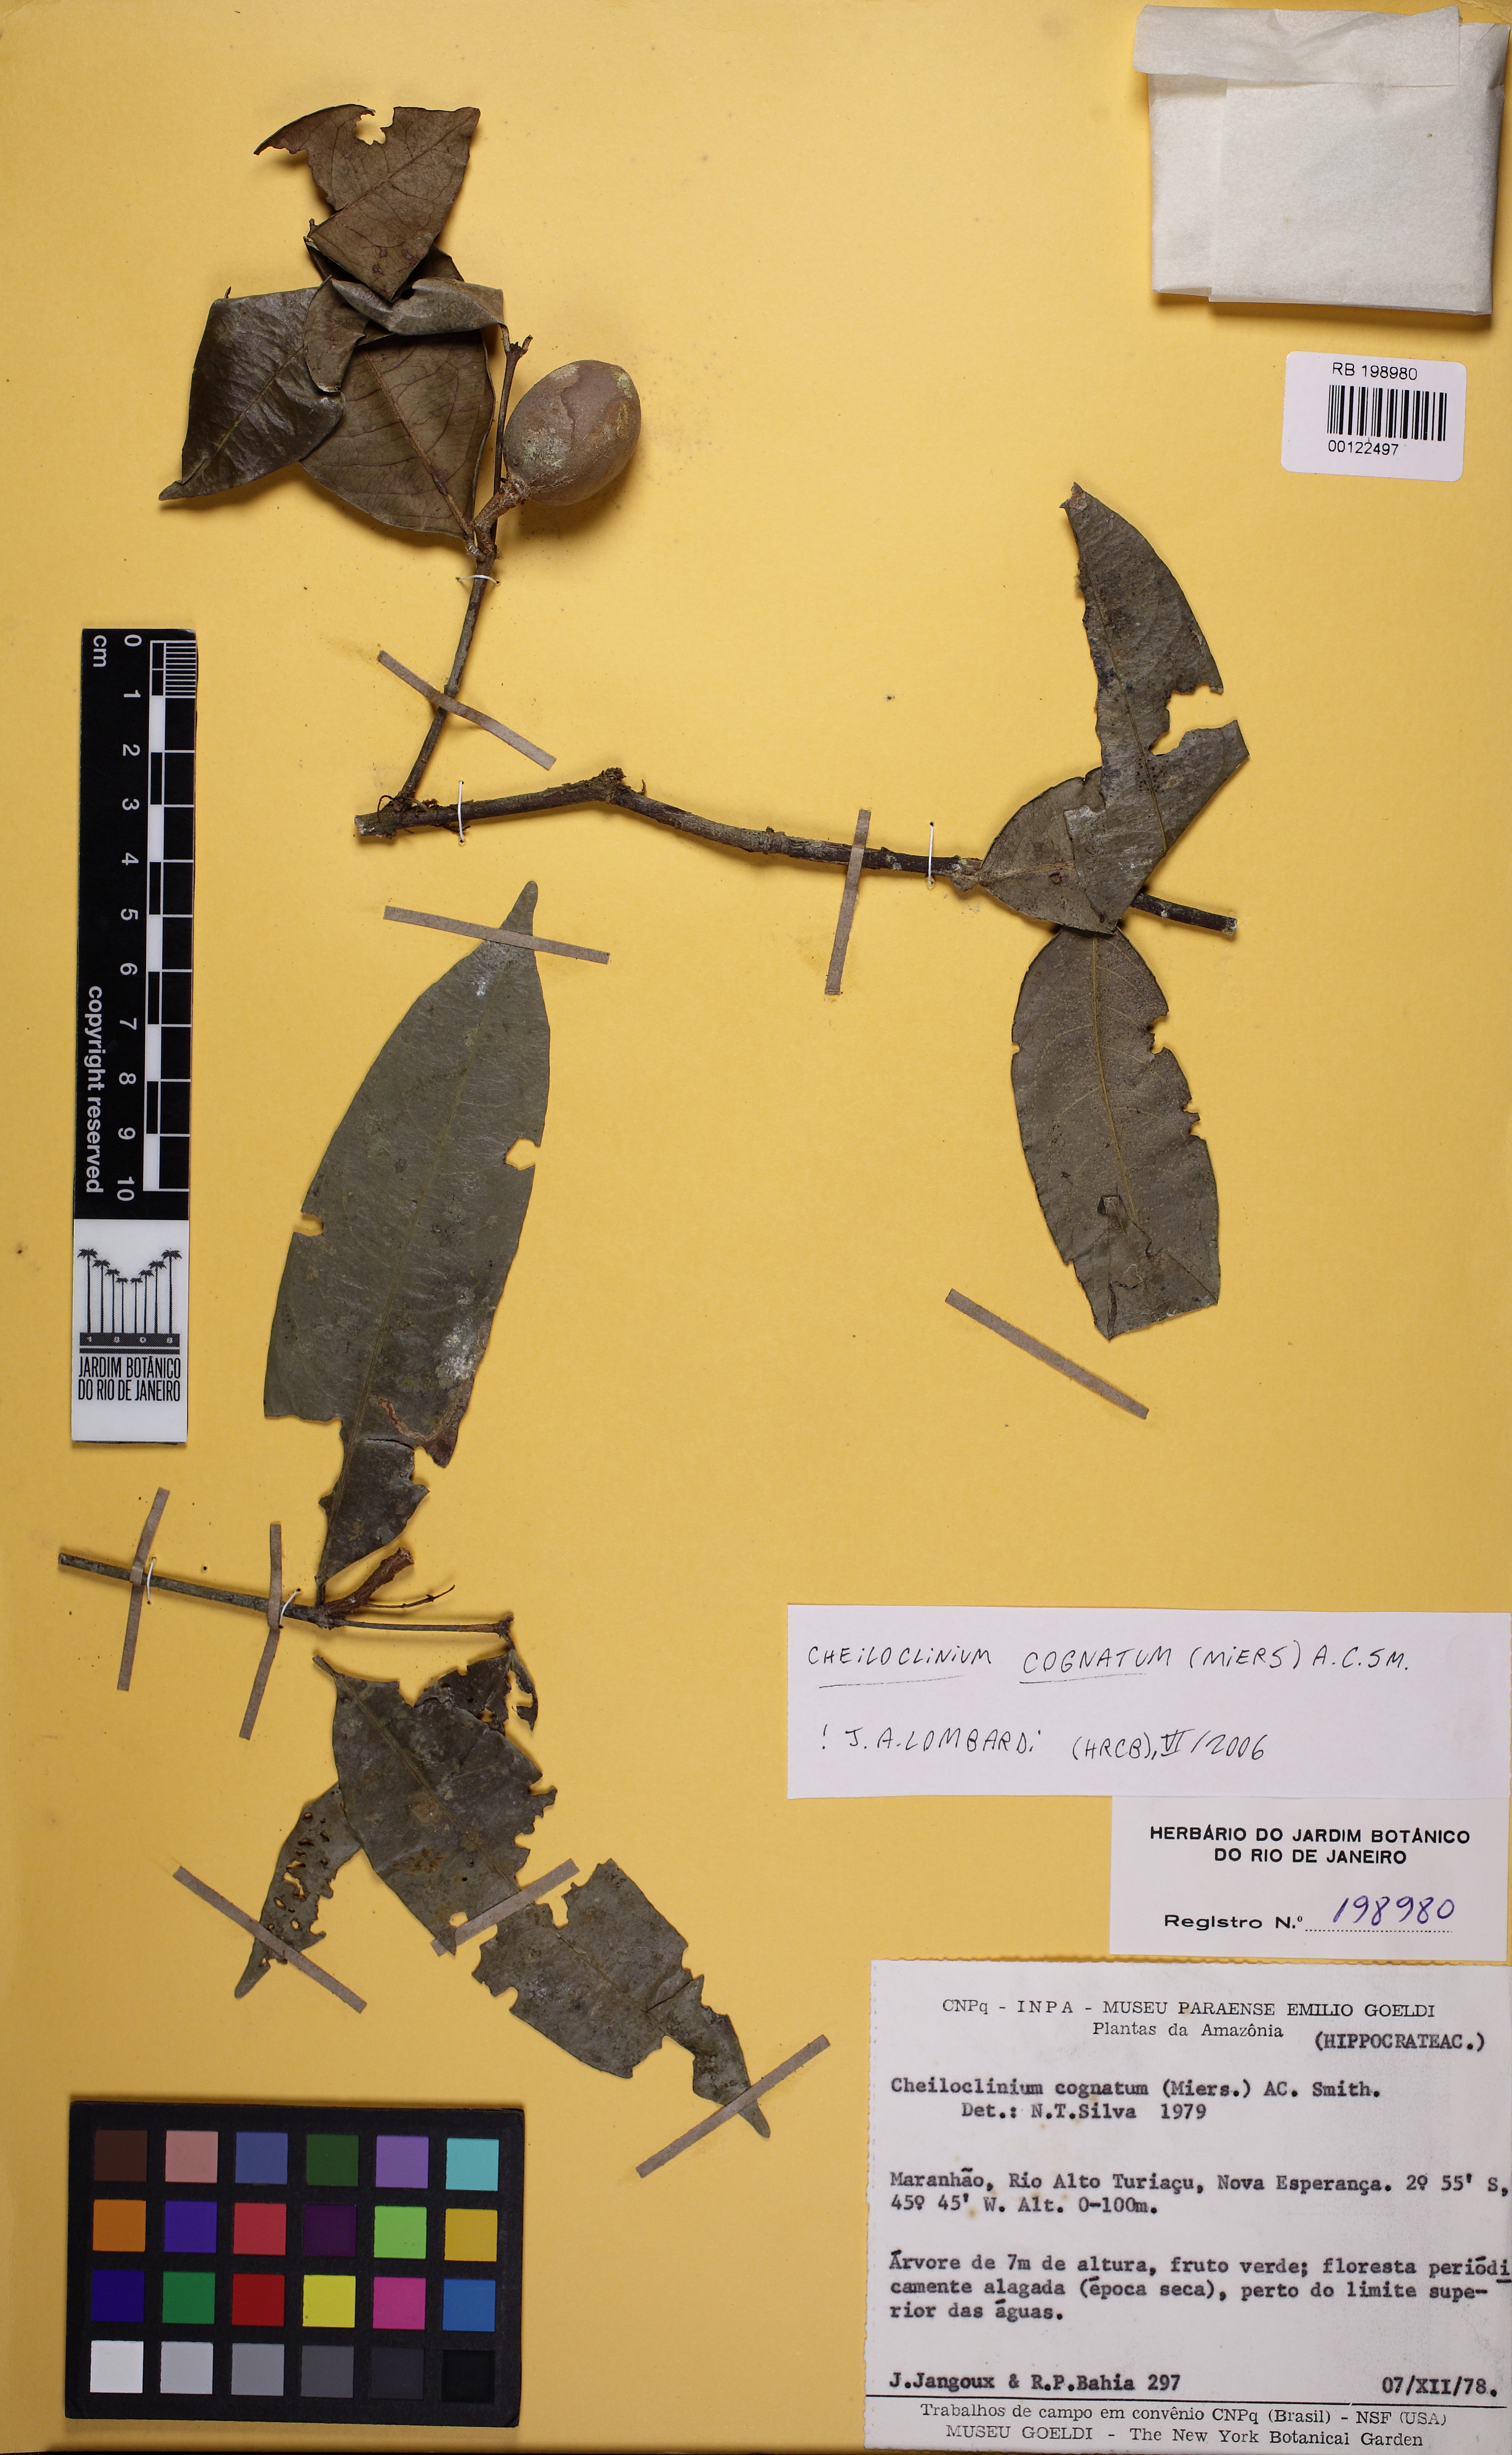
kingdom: Plantae
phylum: Tracheophyta
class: Magnoliopsida
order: Celastrales
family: Celastraceae
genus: Cheiloclinium
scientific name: Cheiloclinium cognatum
